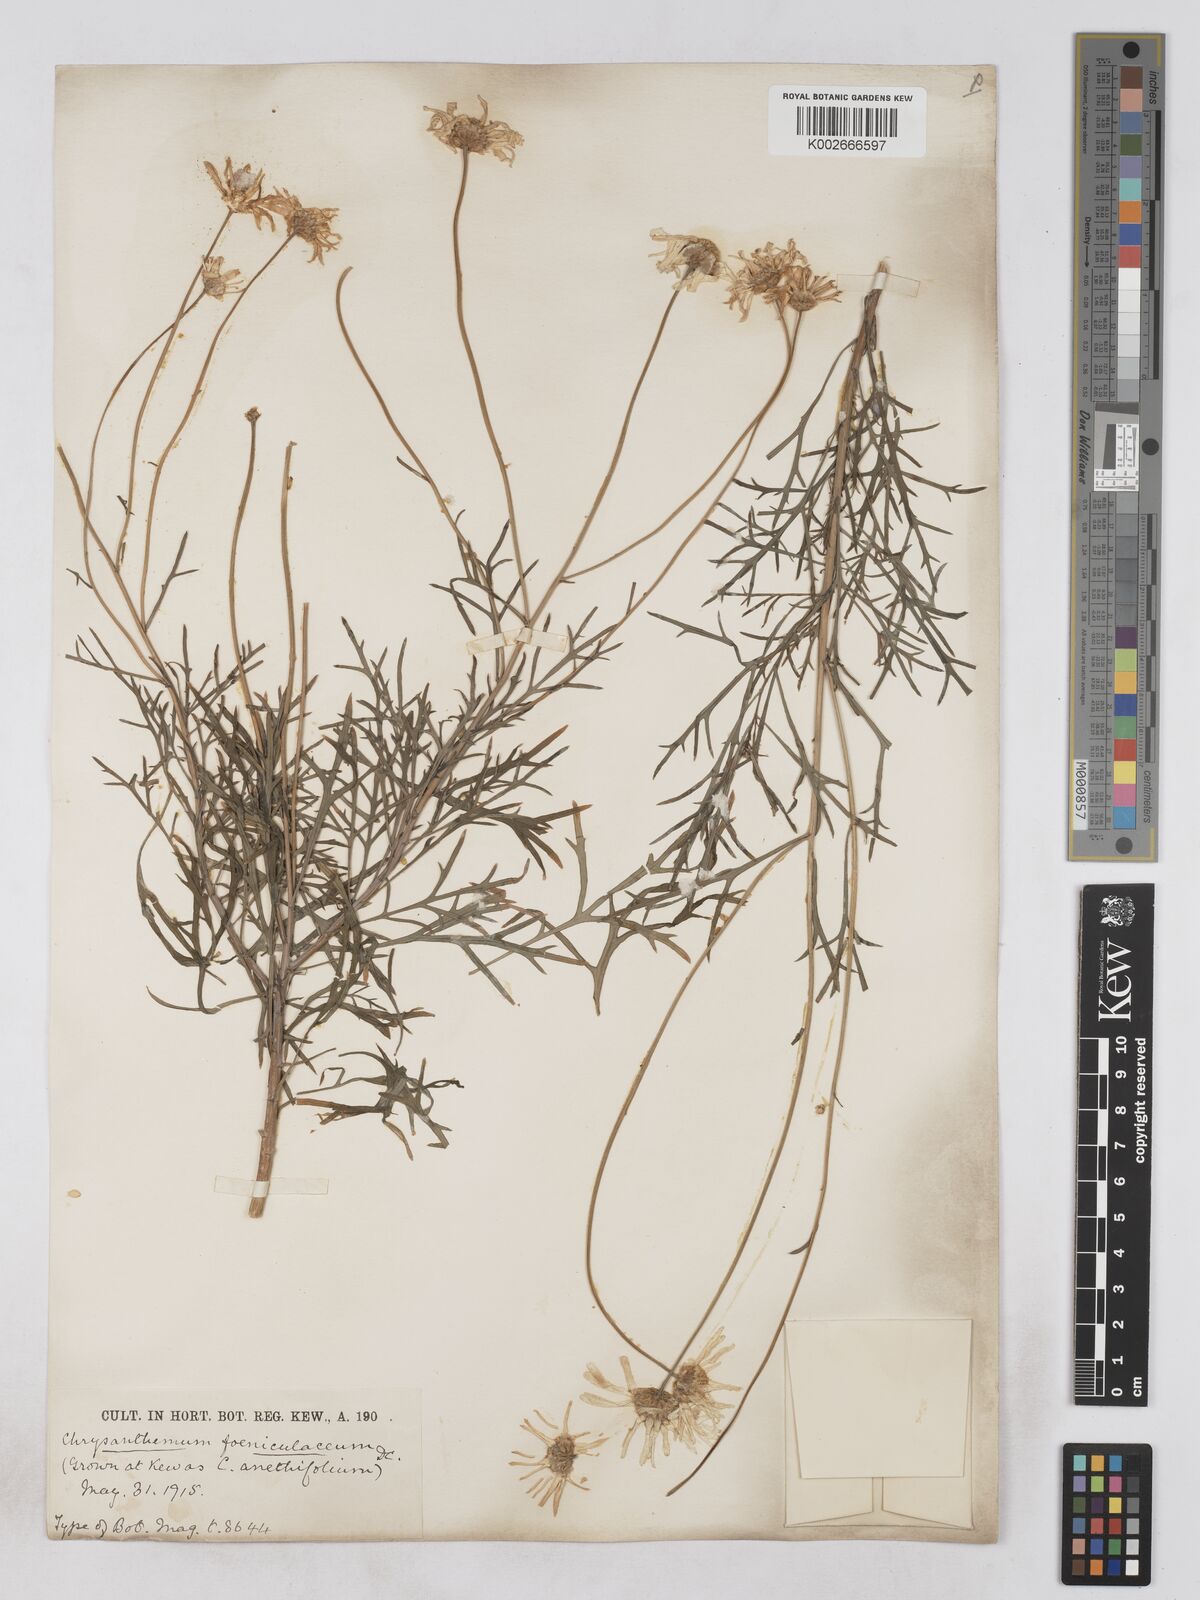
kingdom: Plantae
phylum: Tracheophyta
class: Magnoliopsida
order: Asterales
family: Asteraceae
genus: Argyranthemum
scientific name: Argyranthemum foeniculaceum
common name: Canary island marguerite
